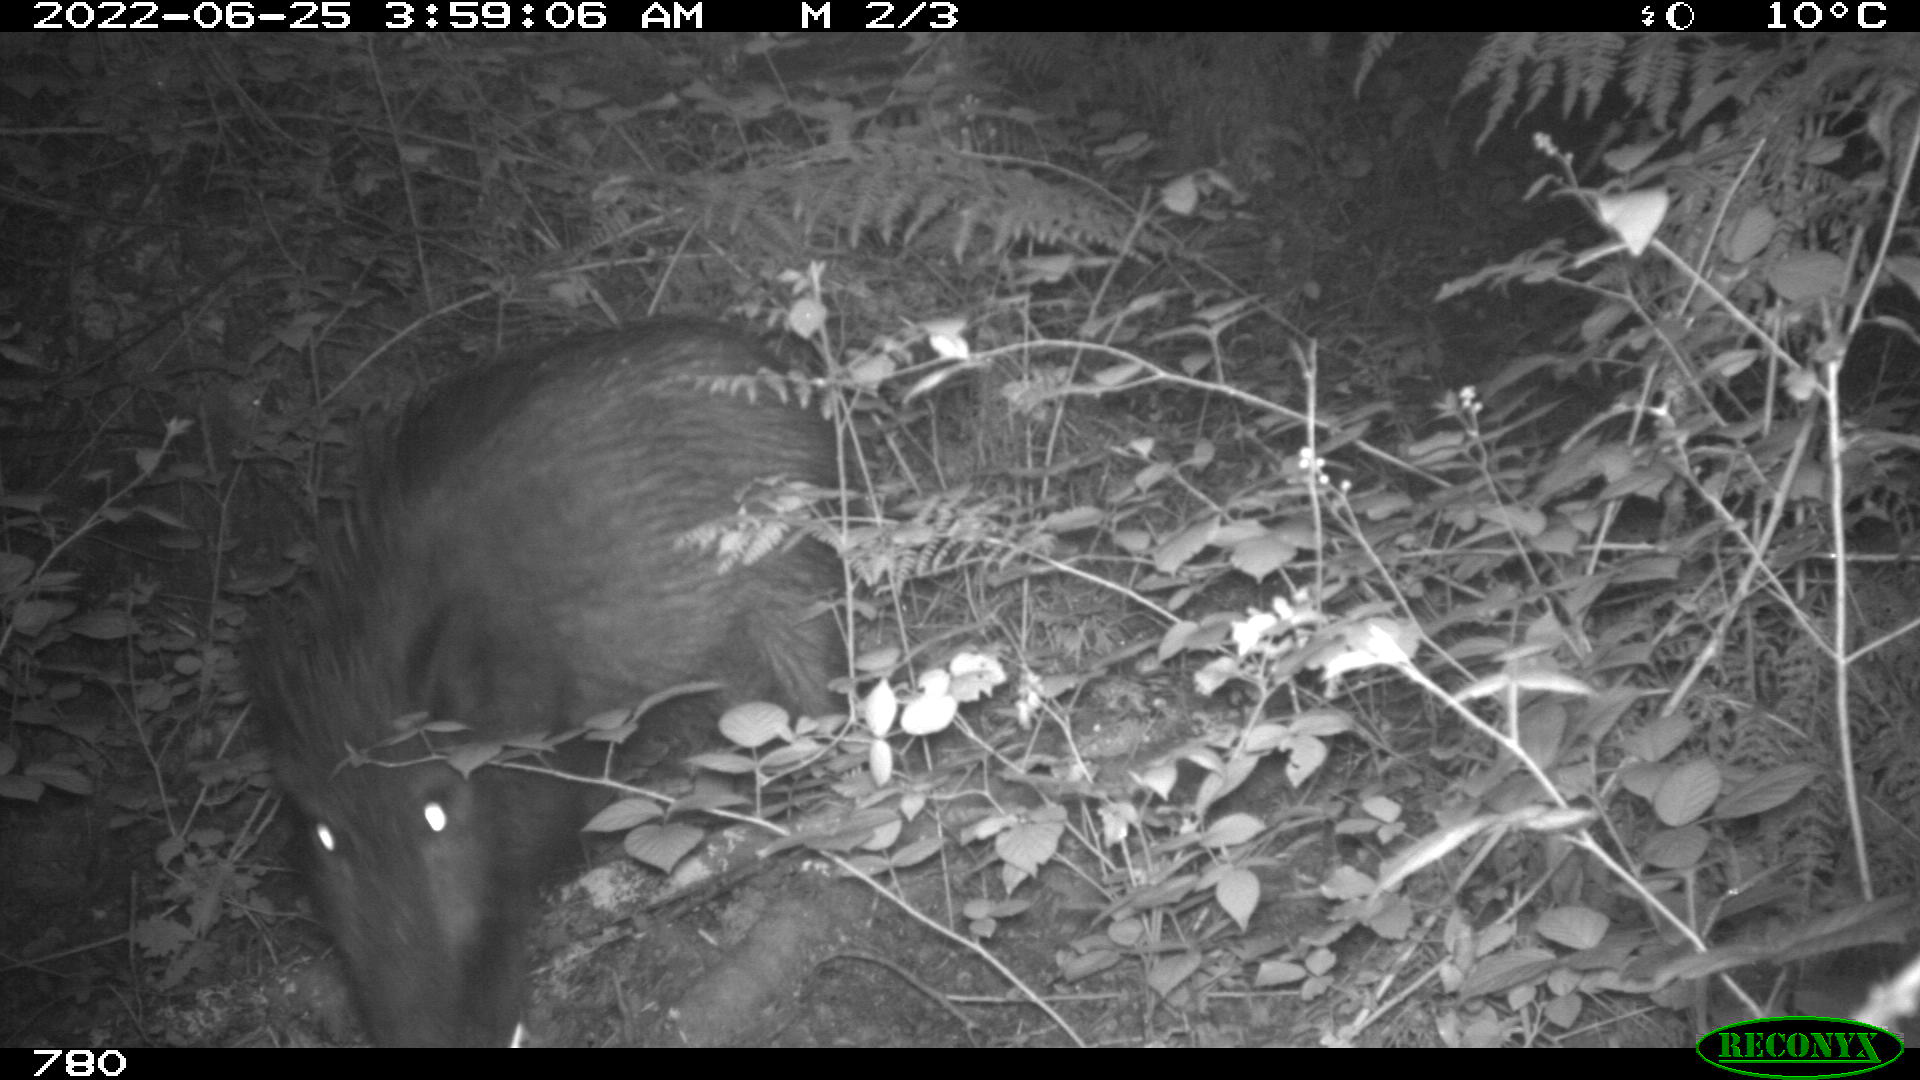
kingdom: Animalia
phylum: Chordata
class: Mammalia
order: Artiodactyla
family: Suidae
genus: Sus
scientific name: Sus scrofa
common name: Wild boar
